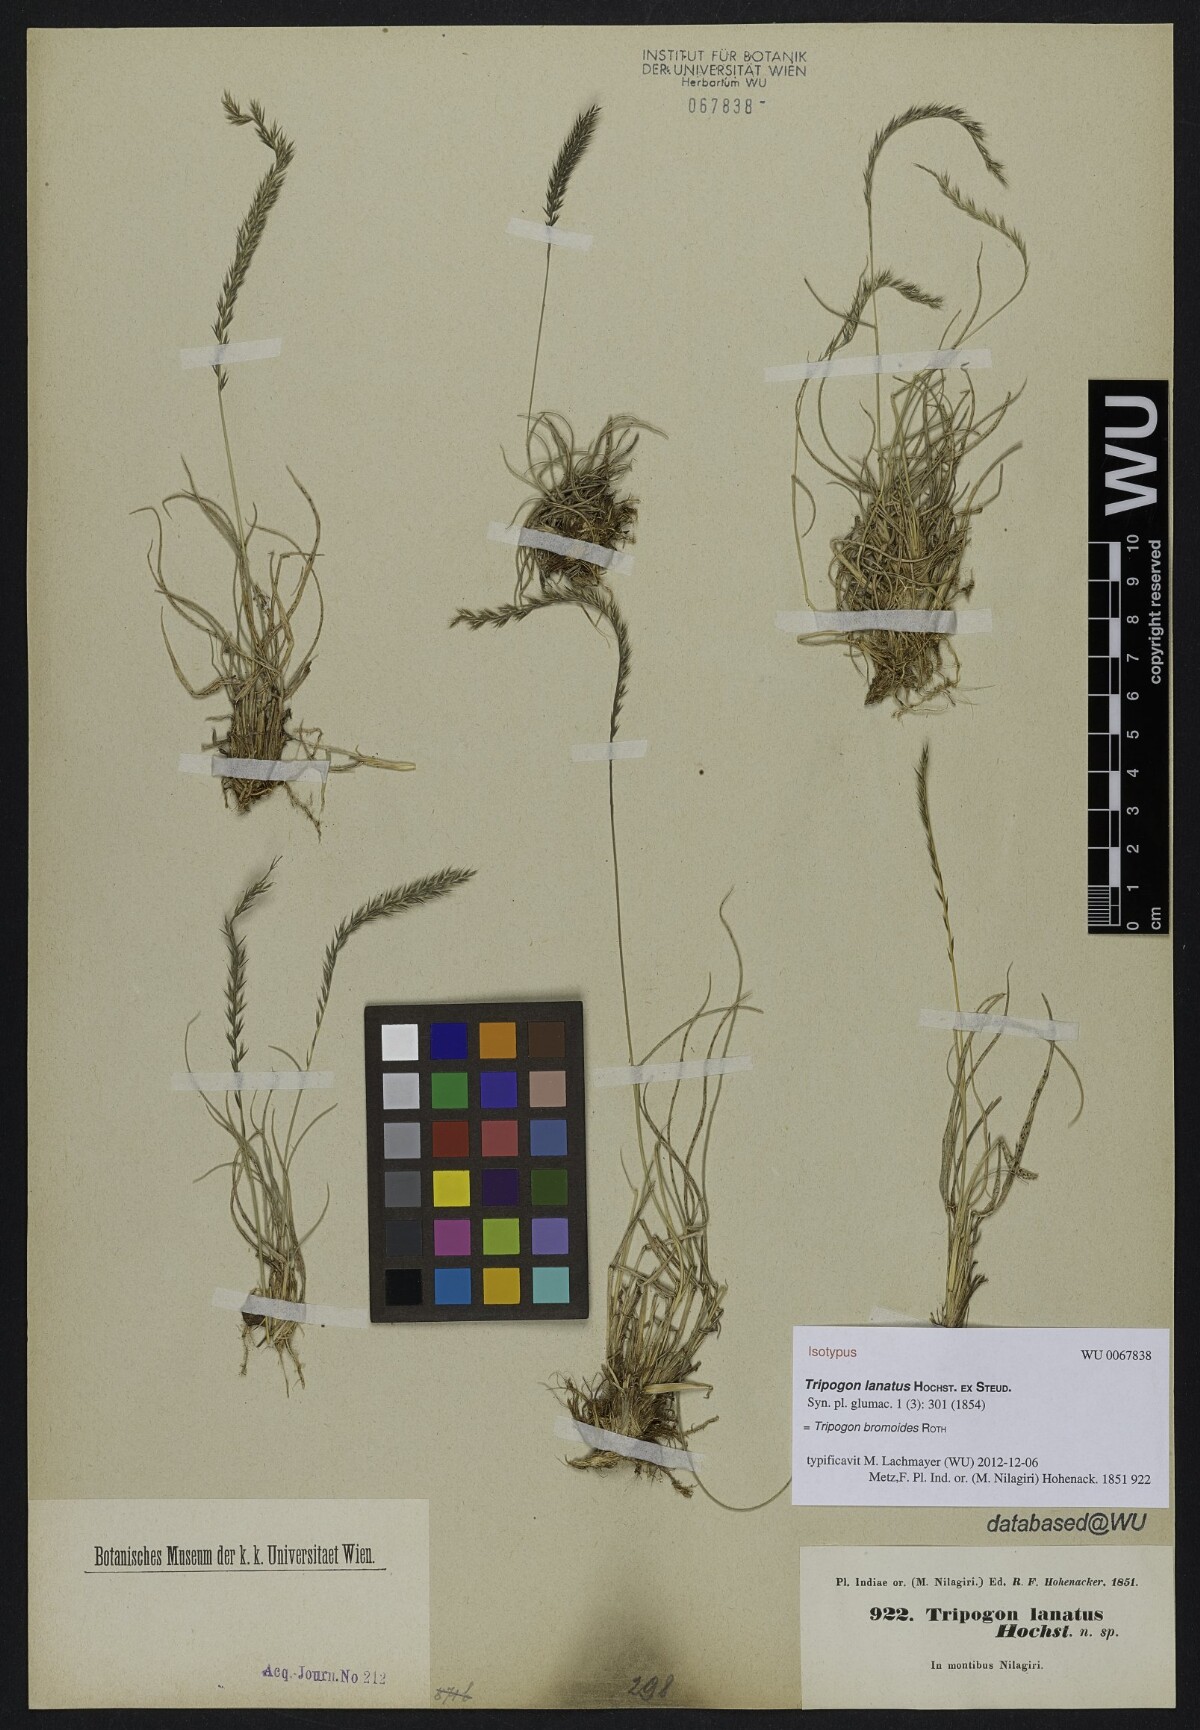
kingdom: Plantae
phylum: Tracheophyta
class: Liliopsida
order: Poales
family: Poaceae
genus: Tripogon
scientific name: Tripogon bromoides
